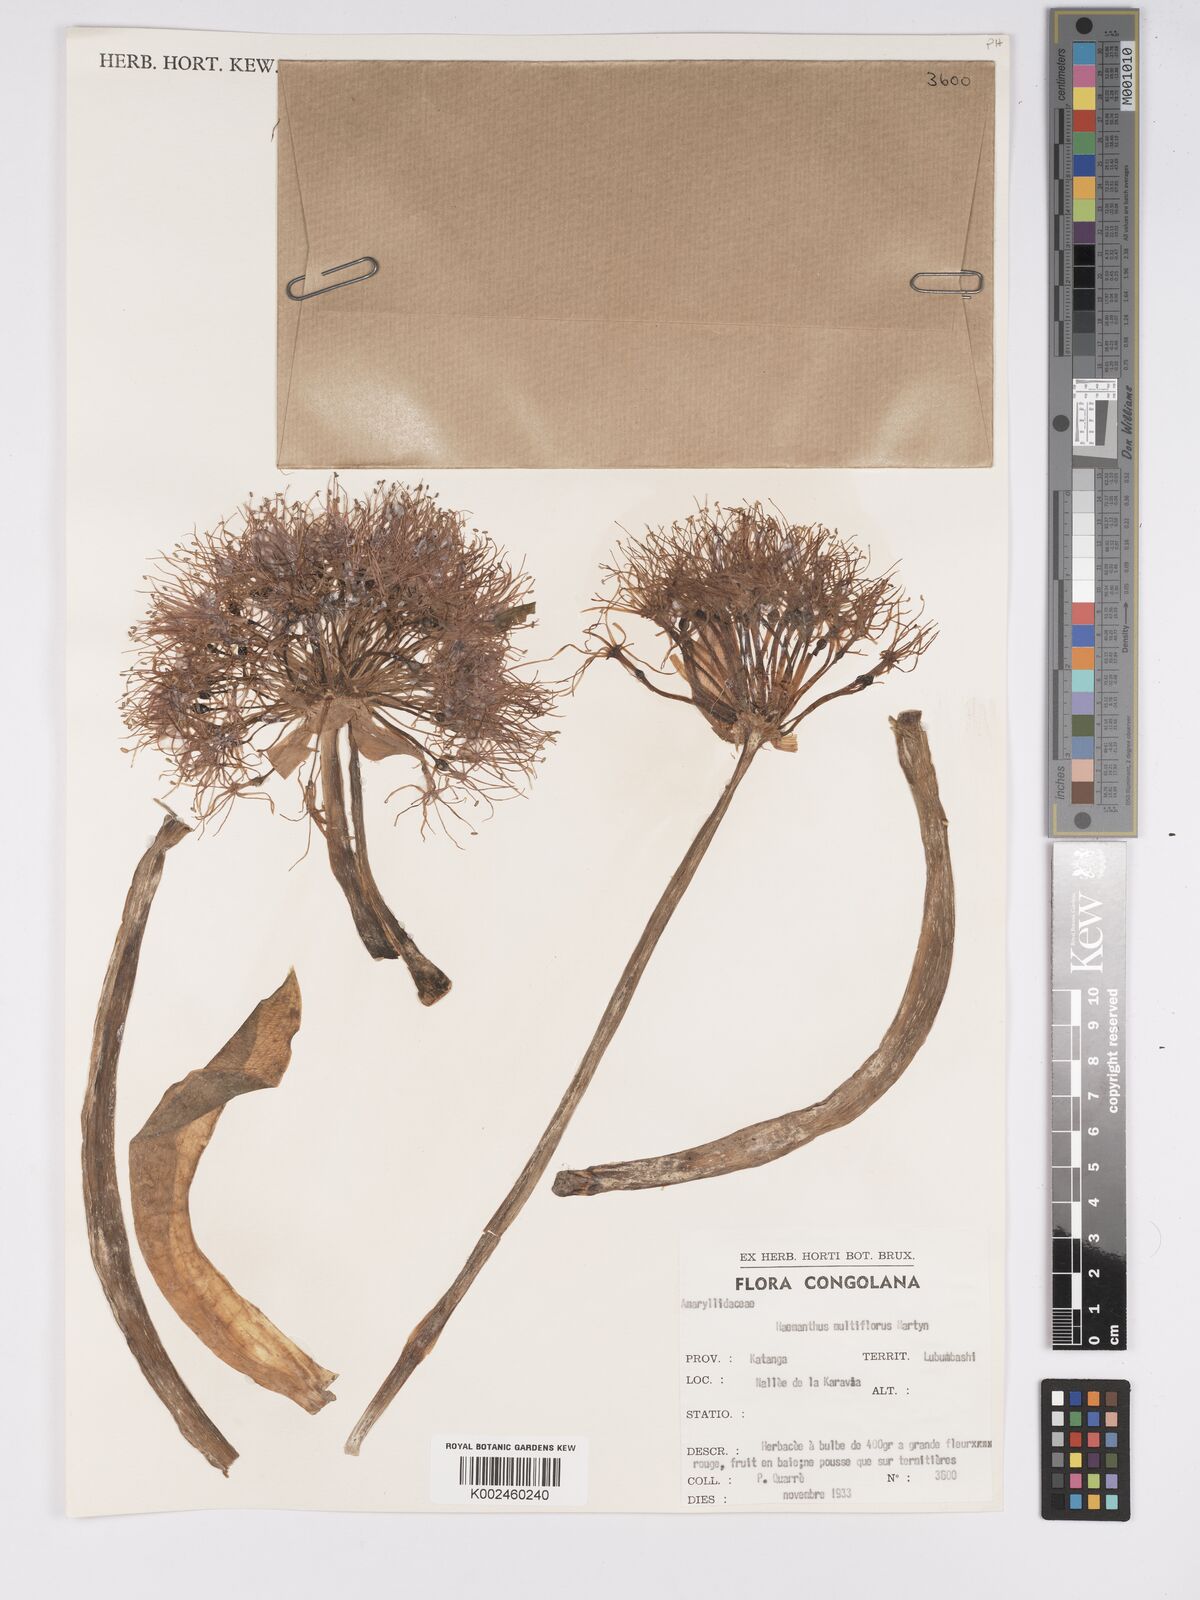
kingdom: Plantae
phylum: Tracheophyta
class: Liliopsida
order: Asparagales
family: Amaryllidaceae
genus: Scadoxus
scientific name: Scadoxus multiflorus
